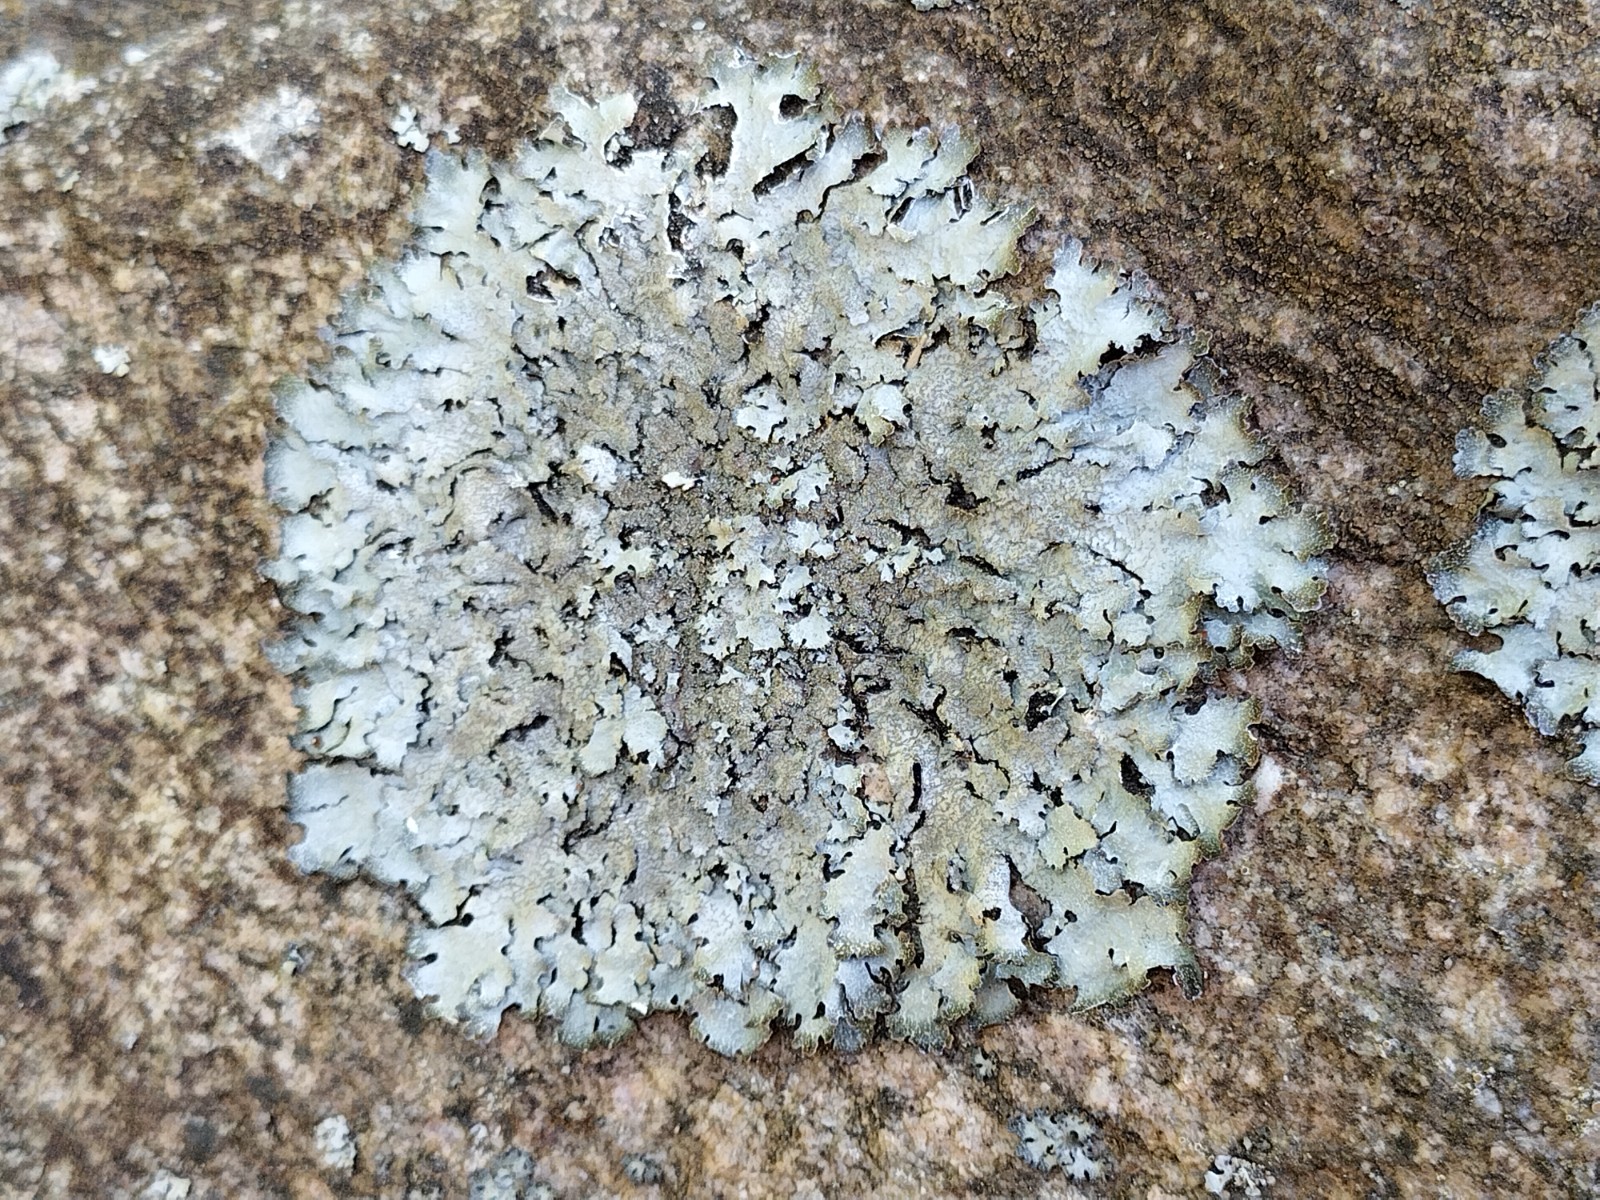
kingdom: Fungi
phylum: Ascomycota
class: Lecanoromycetes
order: Lecanorales
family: Parmeliaceae
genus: Parmelia
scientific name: Parmelia saxatilis
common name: farve-skållav
